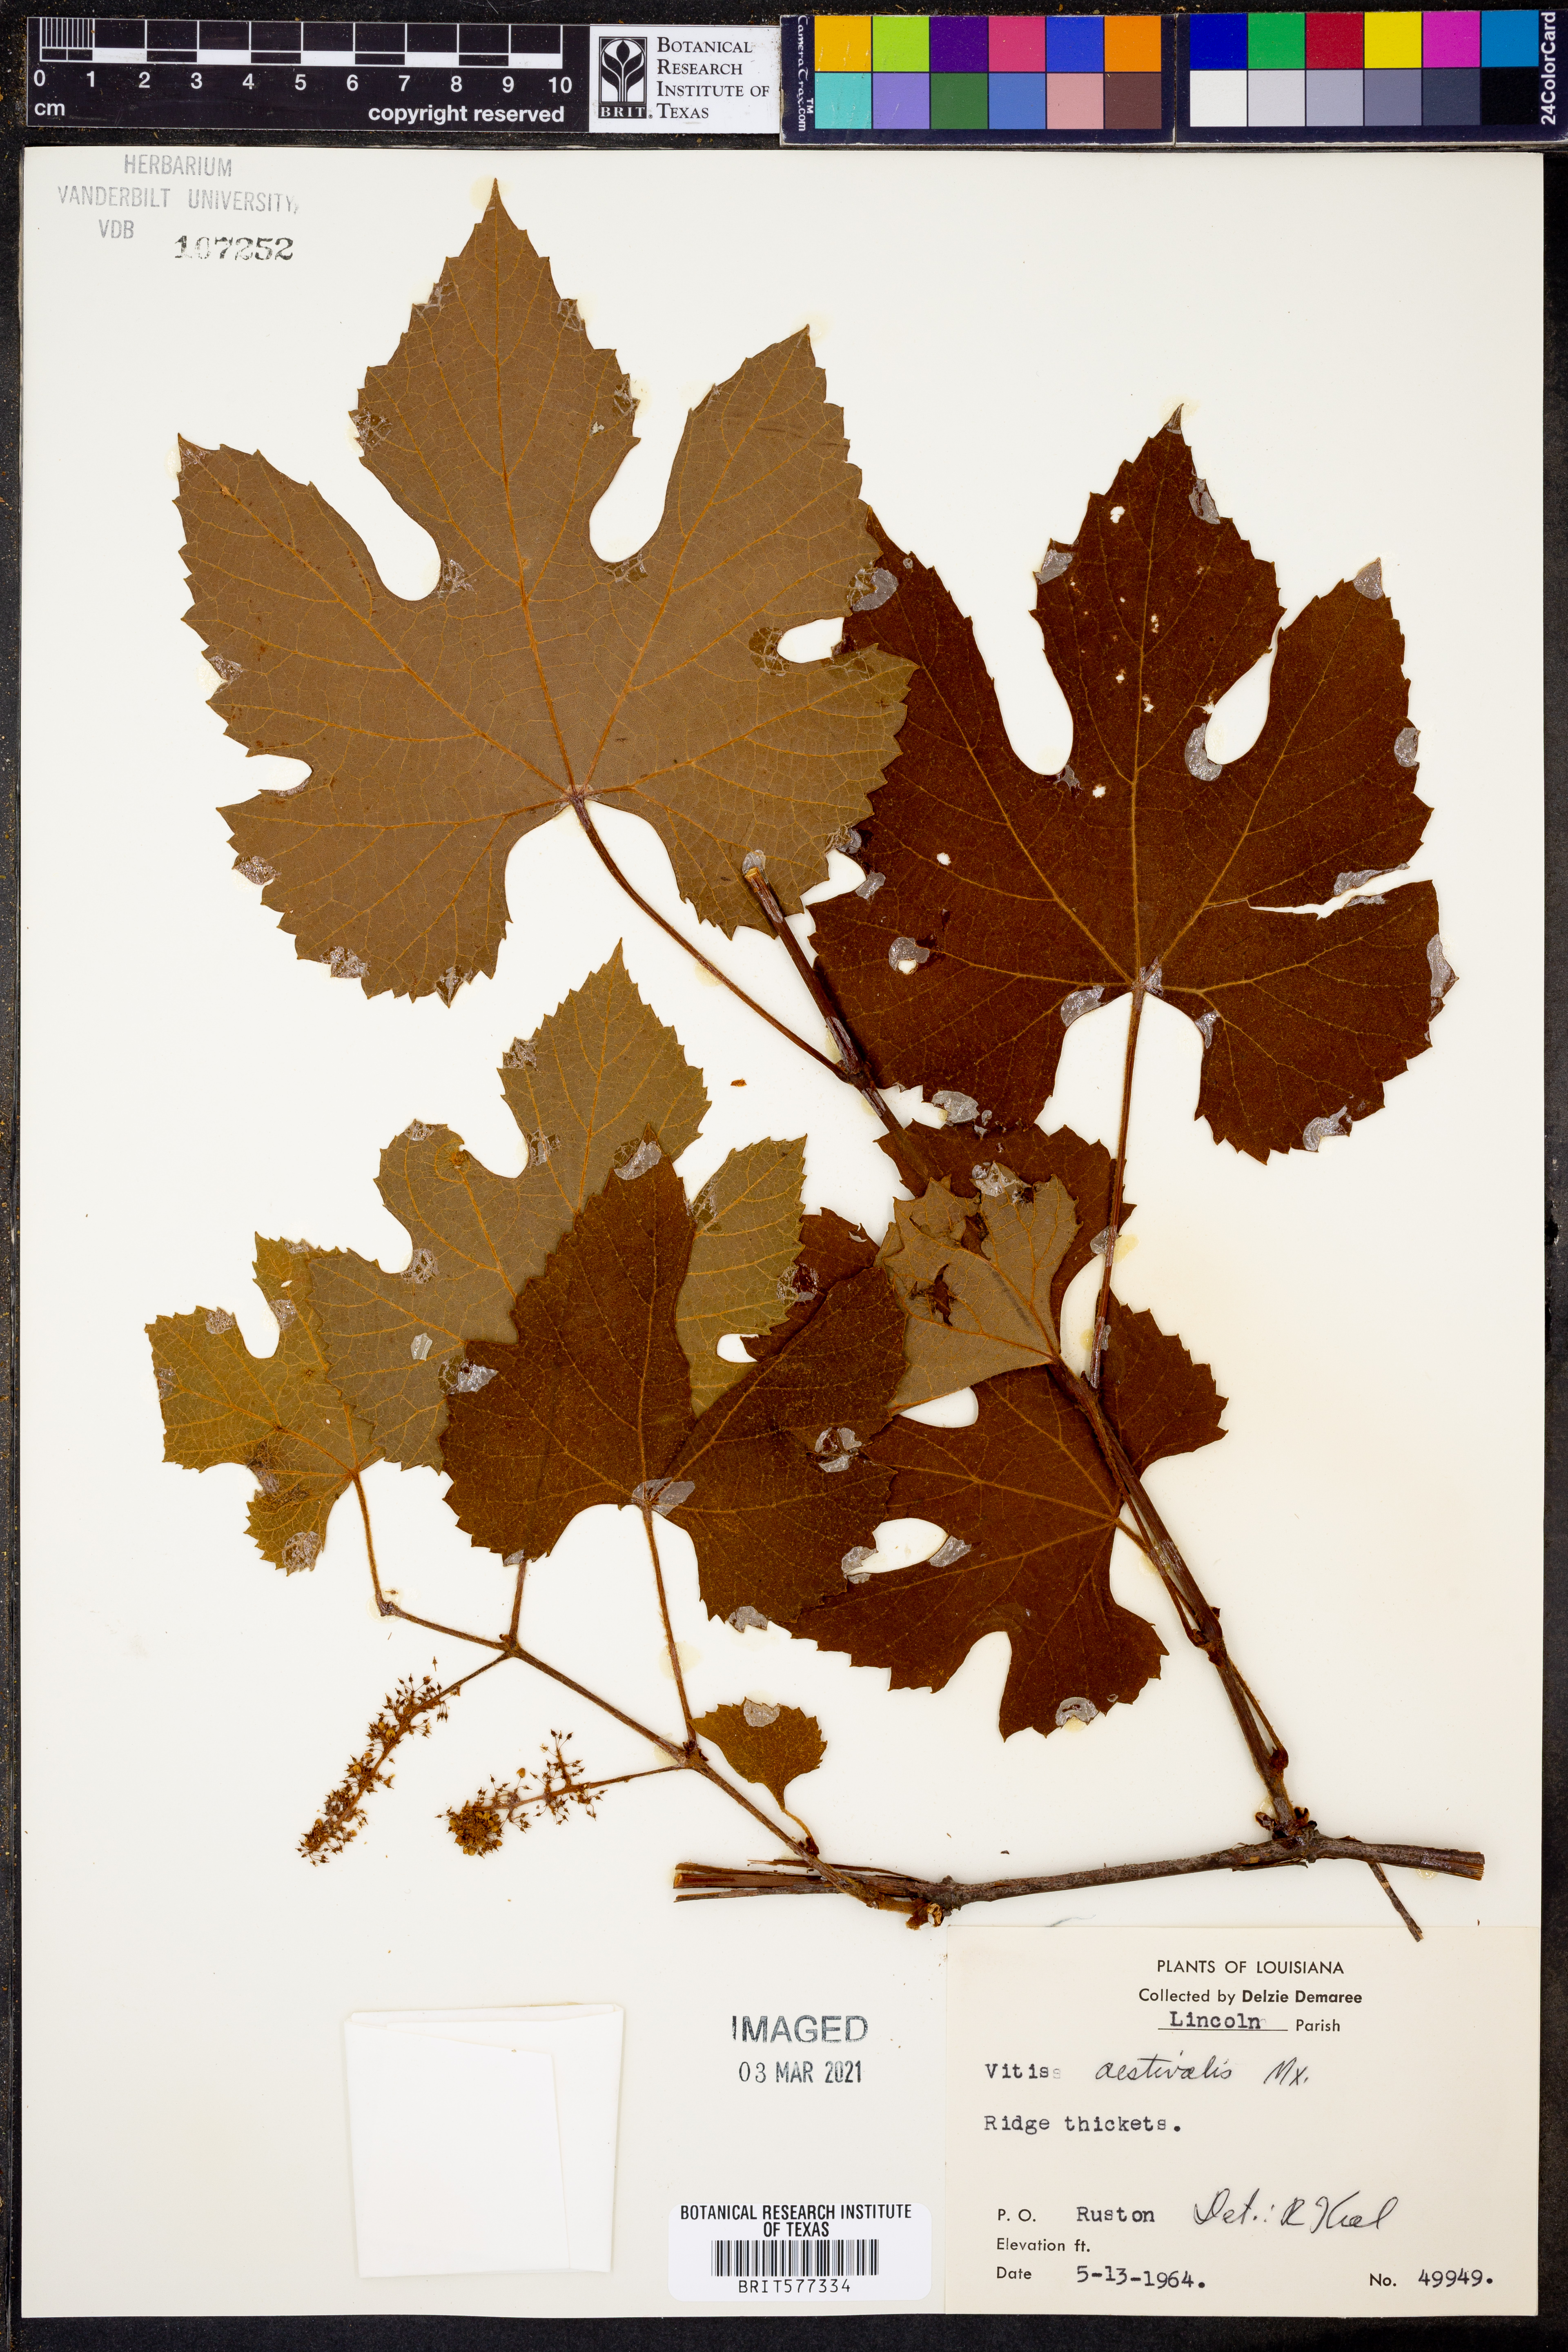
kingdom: Plantae
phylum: Tracheophyta
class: Magnoliopsida
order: Vitales
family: Vitaceae
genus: Vitis
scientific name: Vitis aestivalis
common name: Pigeon grape
